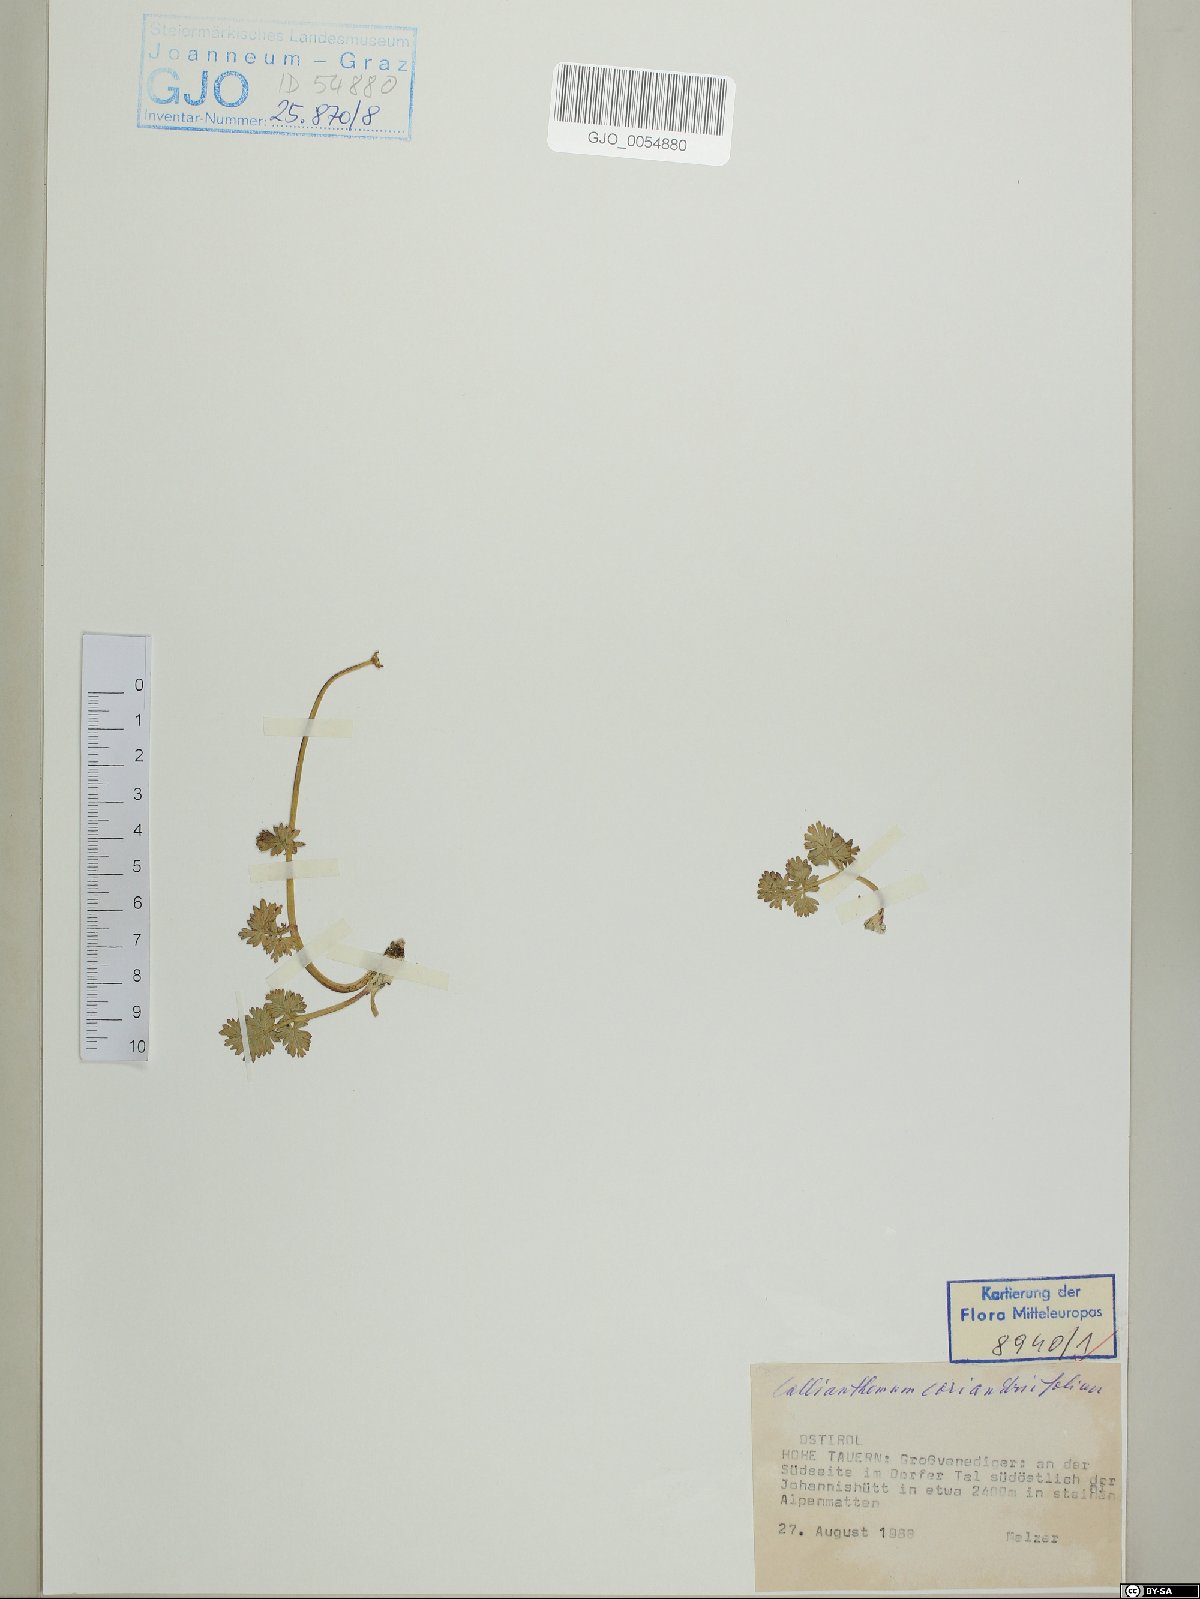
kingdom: Plantae
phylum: Tracheophyta
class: Magnoliopsida
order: Ranunculales
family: Ranunculaceae
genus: Callianthemum
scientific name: Callianthemum coriandrifolium
